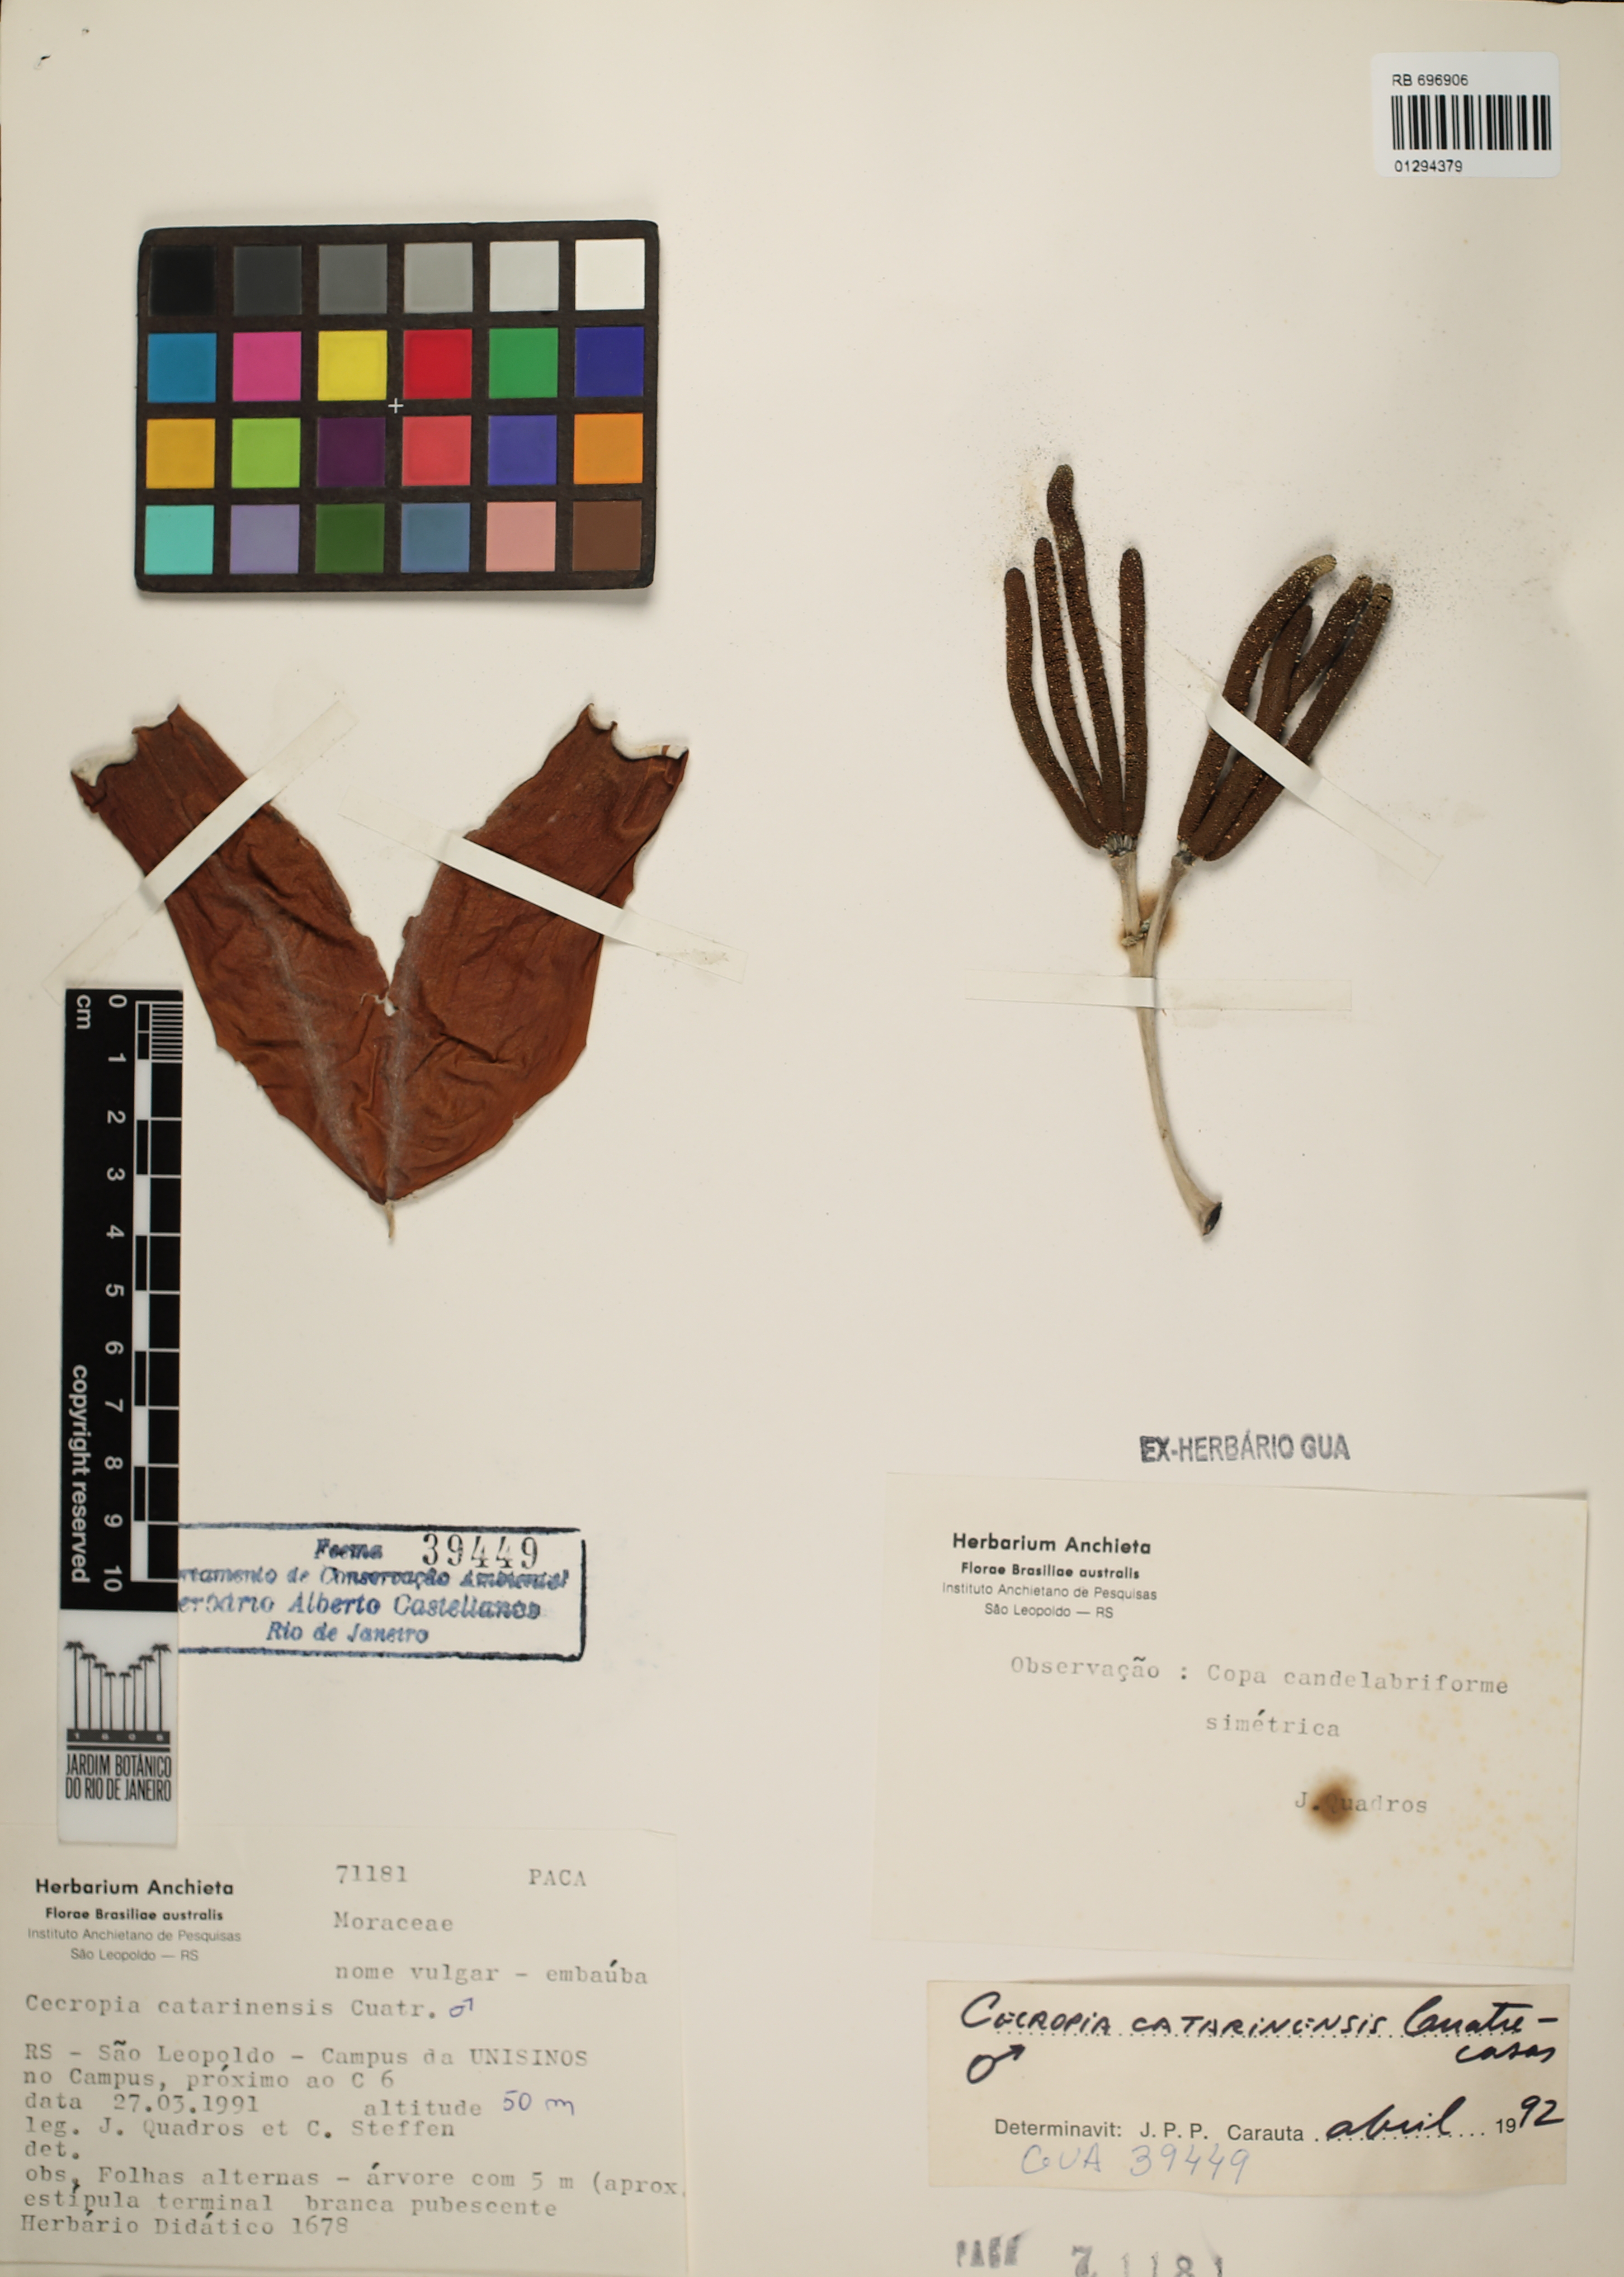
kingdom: Plantae
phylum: Tracheophyta
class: Magnoliopsida
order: Rosales
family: Urticaceae
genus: Cecropia
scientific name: Cecropia pachystachya
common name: Ambay pumpwood
